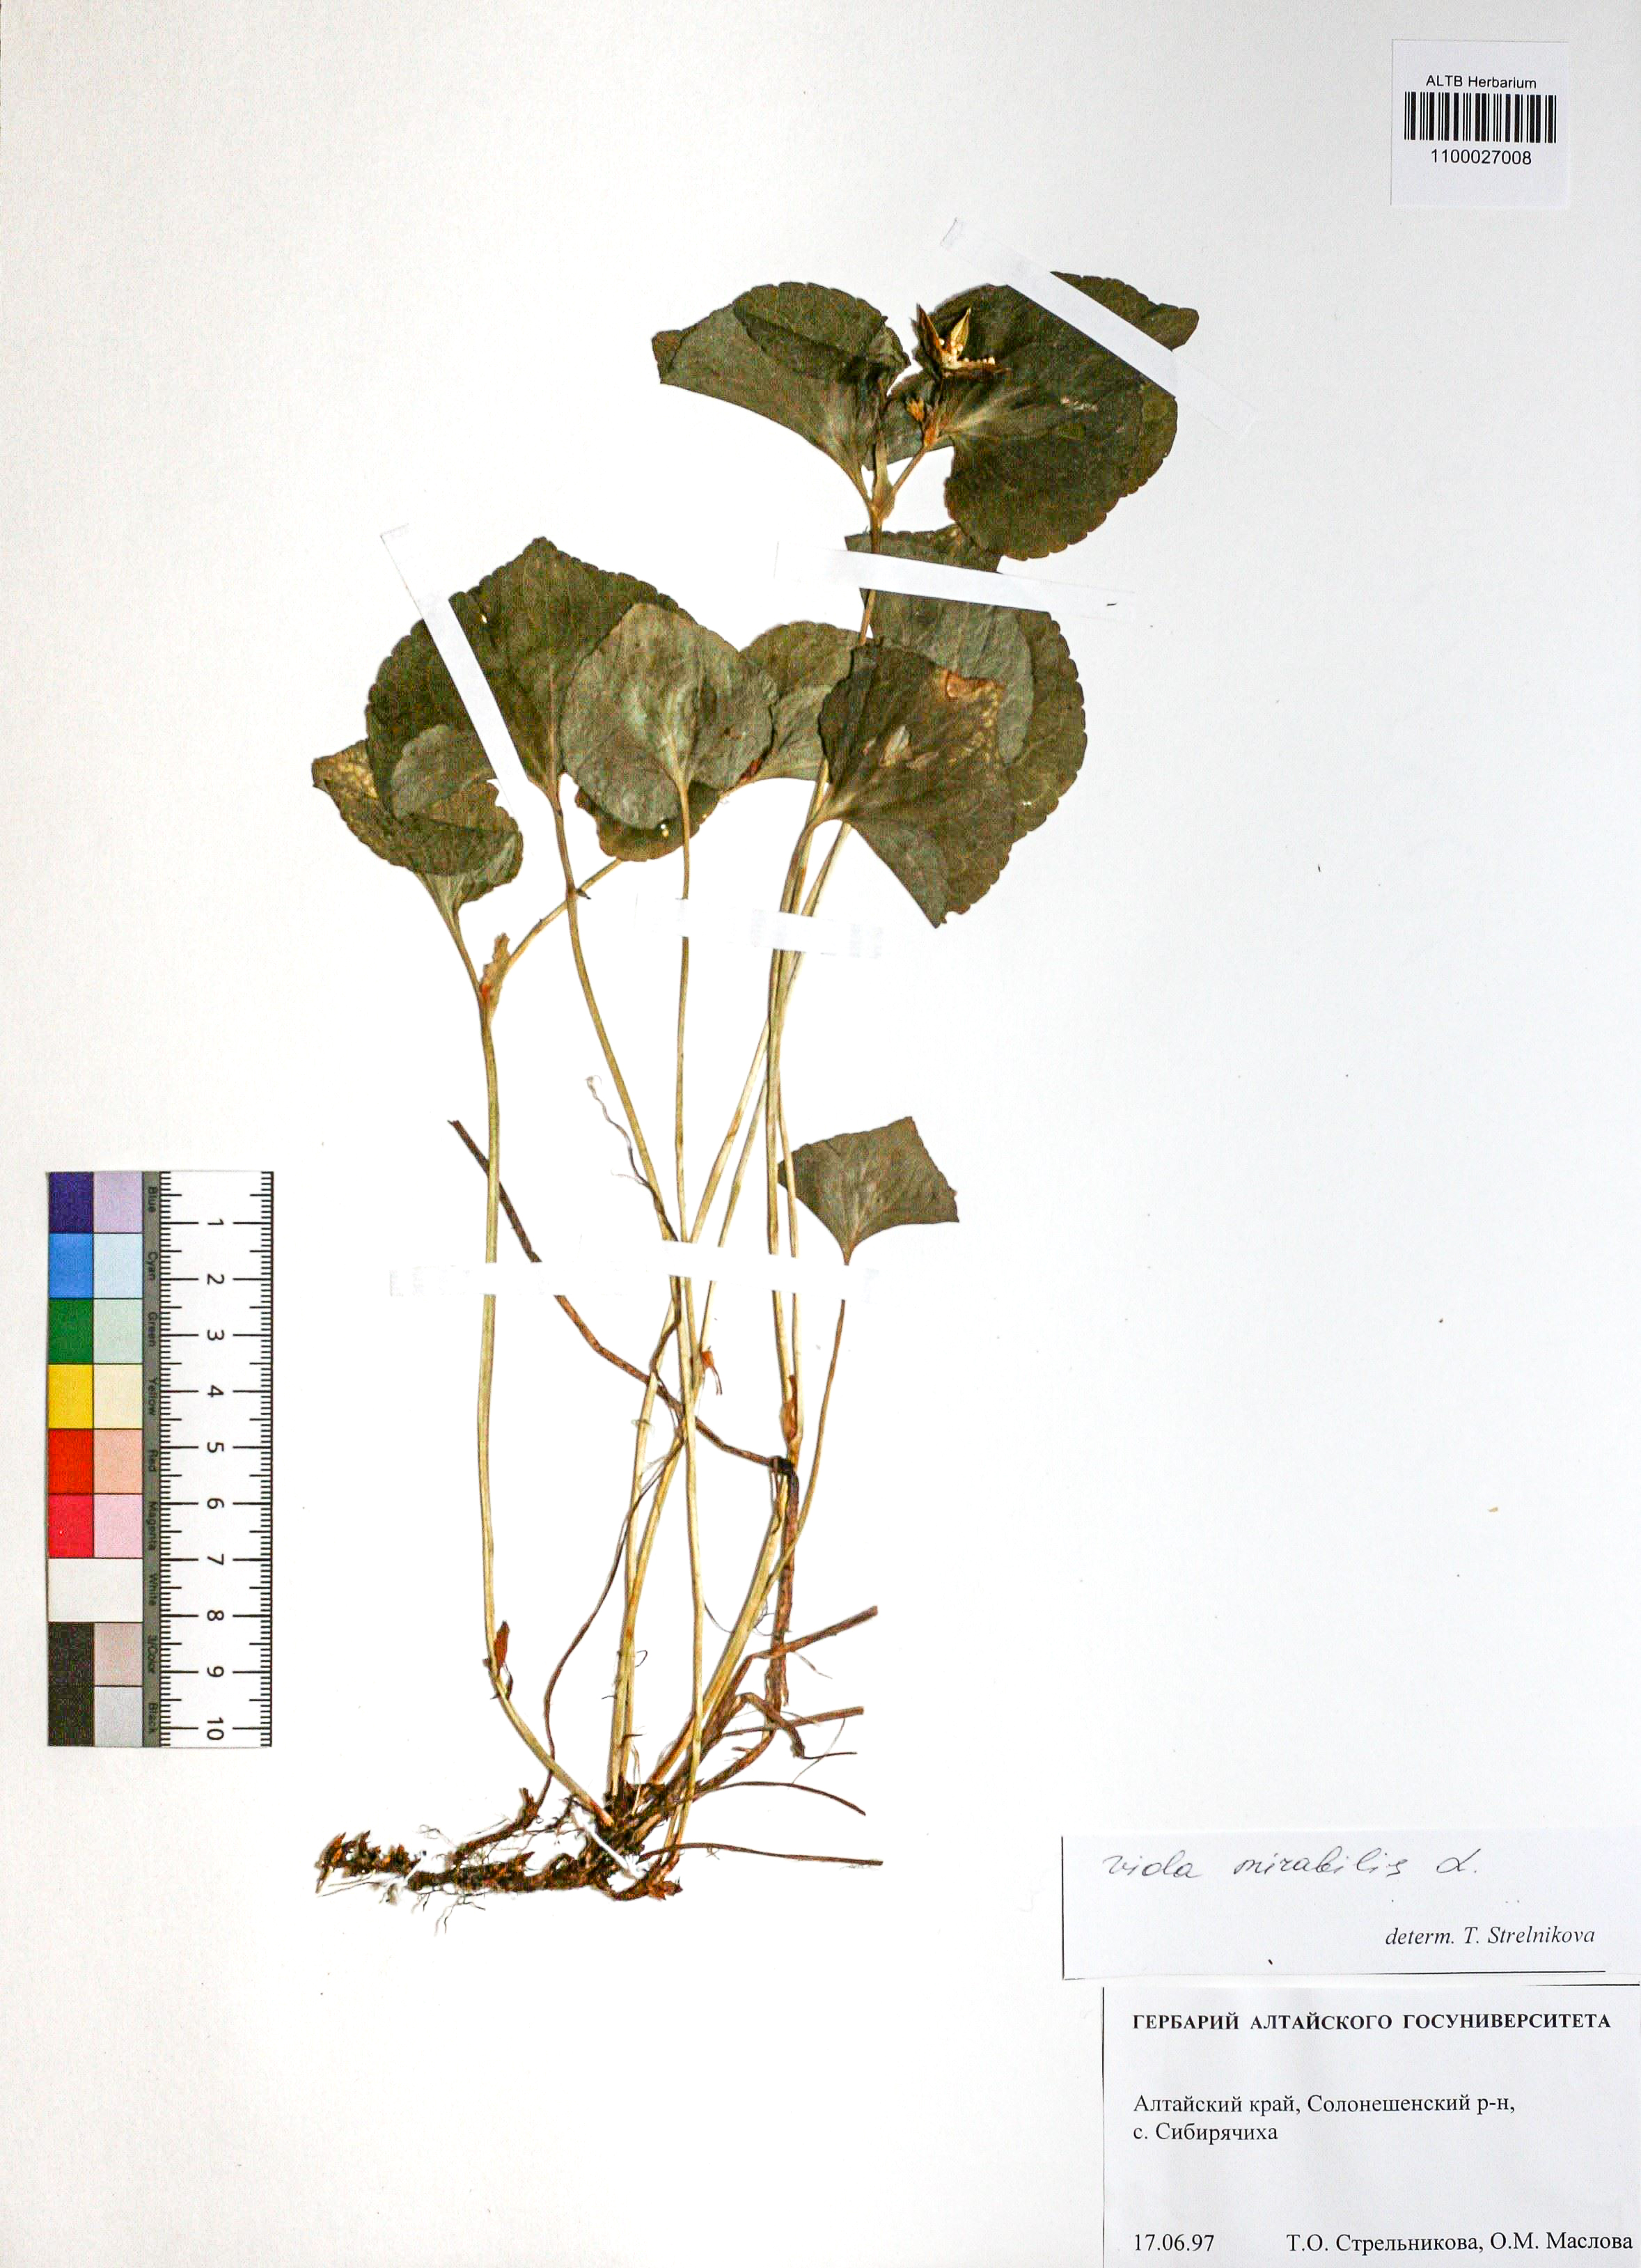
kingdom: Plantae
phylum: Tracheophyta
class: Magnoliopsida
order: Malpighiales
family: Violaceae
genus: Viola
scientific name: Viola mirabilis
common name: Wonder violet
